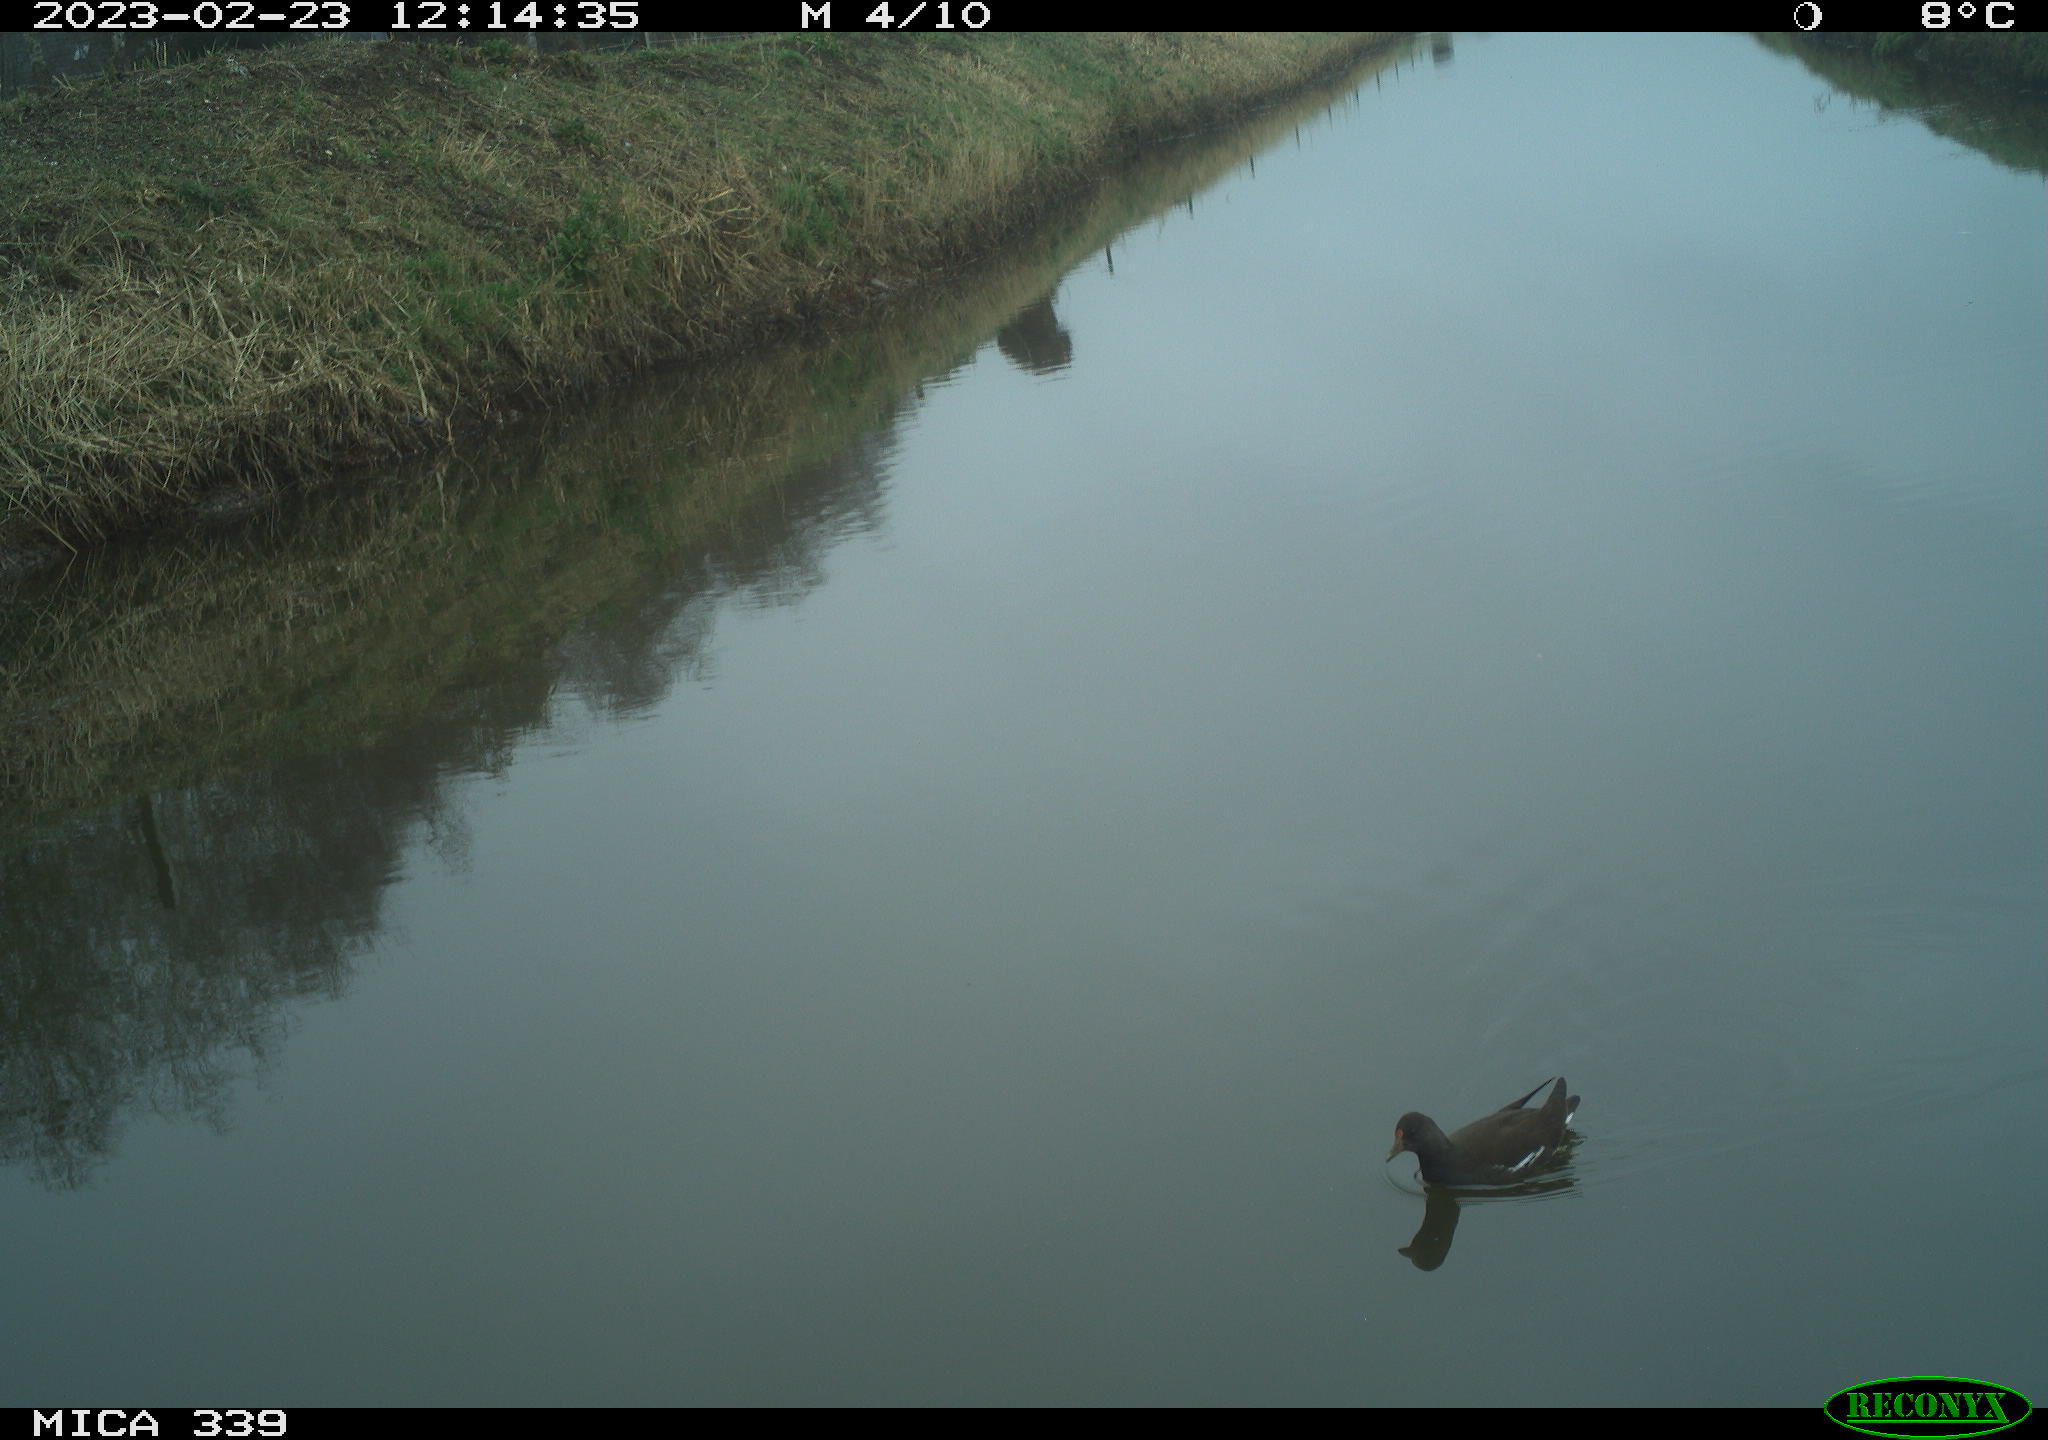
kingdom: Animalia
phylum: Chordata
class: Aves
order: Gruiformes
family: Rallidae
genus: Gallinula
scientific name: Gallinula chloropus
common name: Common moorhen
